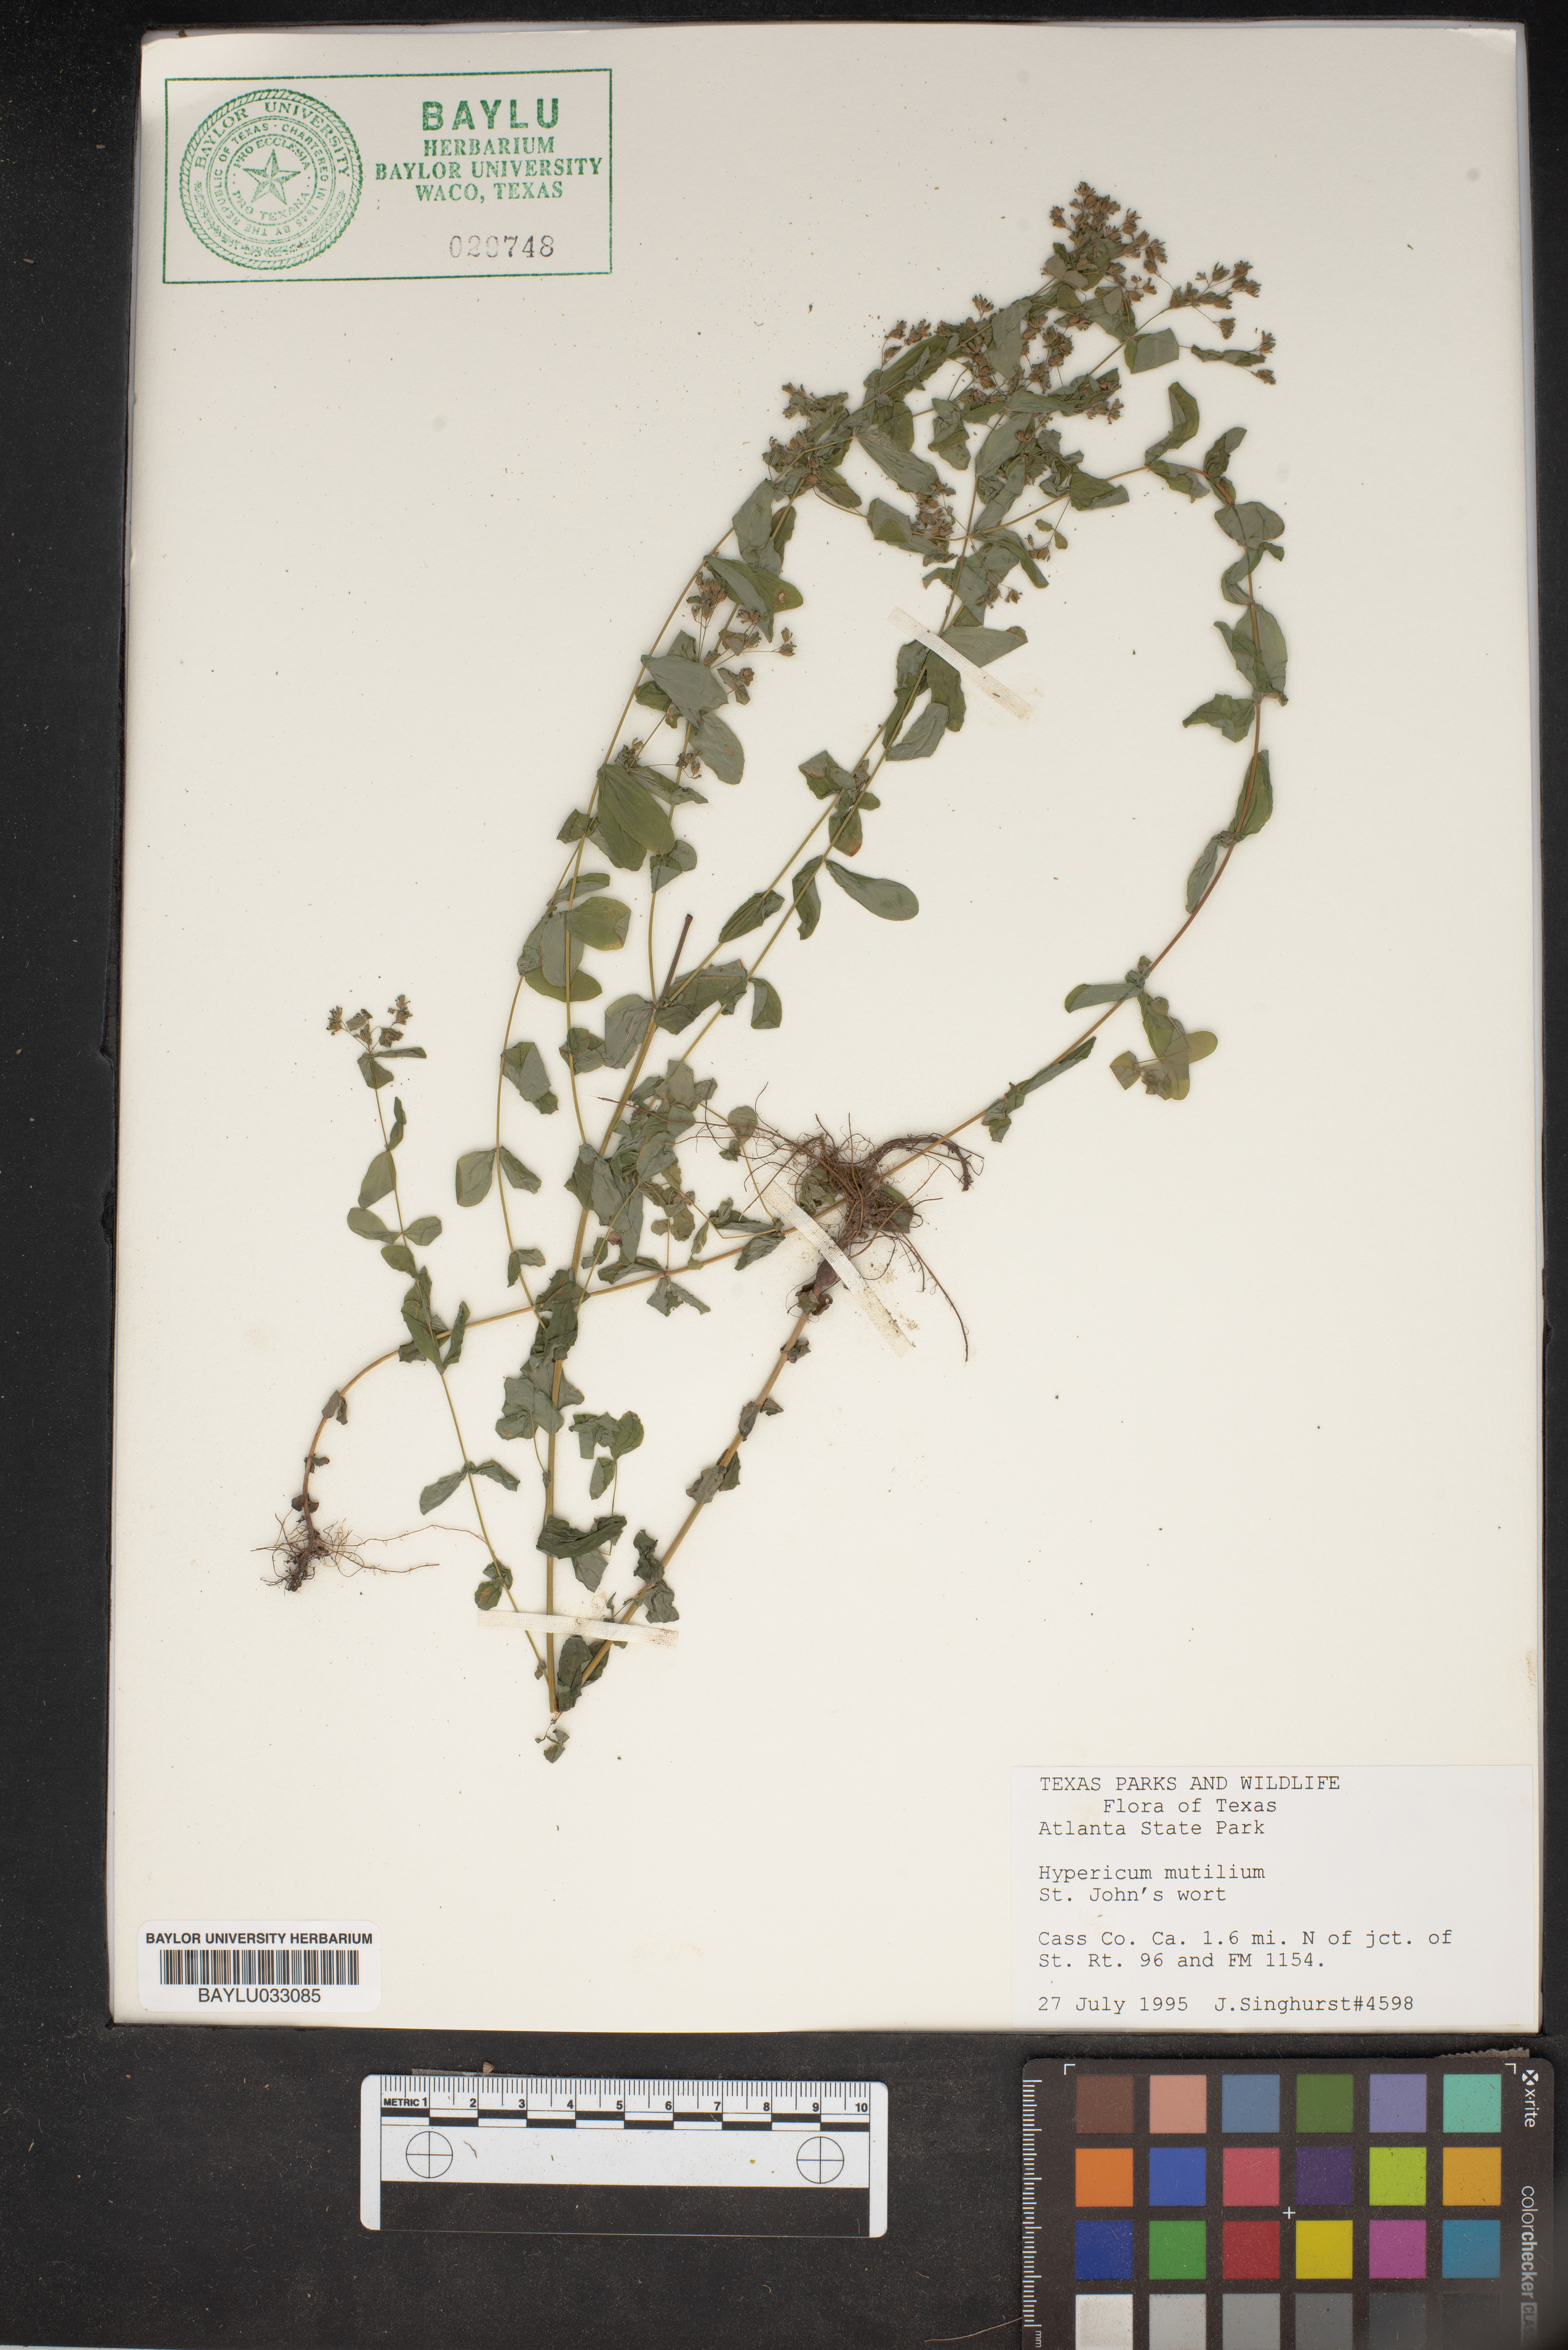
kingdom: Plantae
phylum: Tracheophyta
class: Magnoliopsida
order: Malpighiales
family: Hypericaceae
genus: Hypericum
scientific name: Hypericum mutilum
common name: Dwarf st. john's-wort
